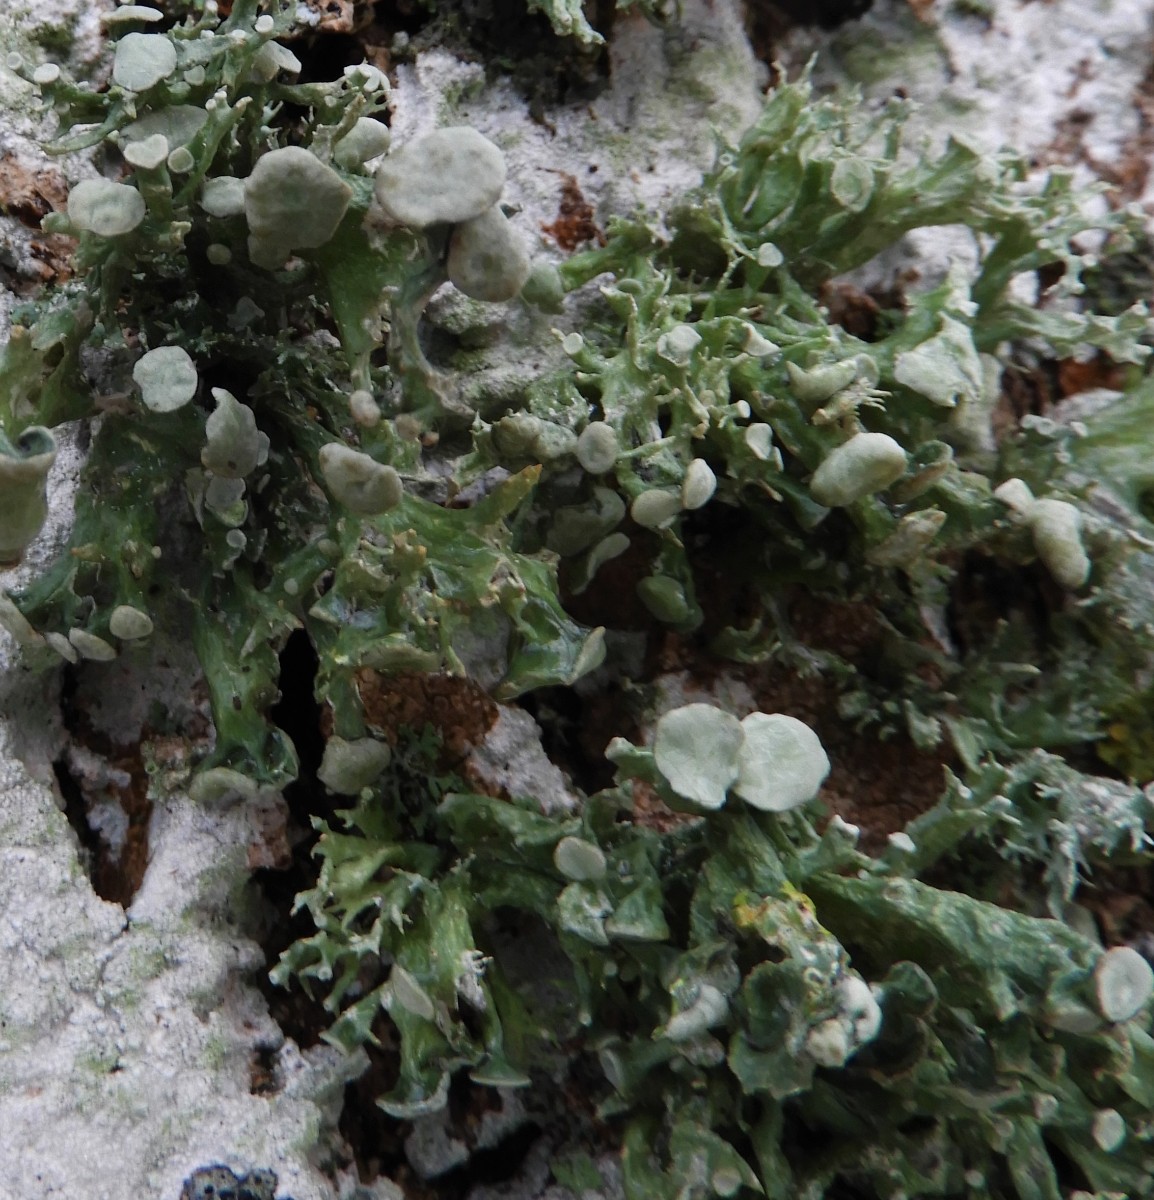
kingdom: Fungi
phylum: Ascomycota
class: Lecanoromycetes
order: Lecanorales
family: Ramalinaceae
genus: Ramalina
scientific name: Ramalina fastigiata
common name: tue-grenlav
